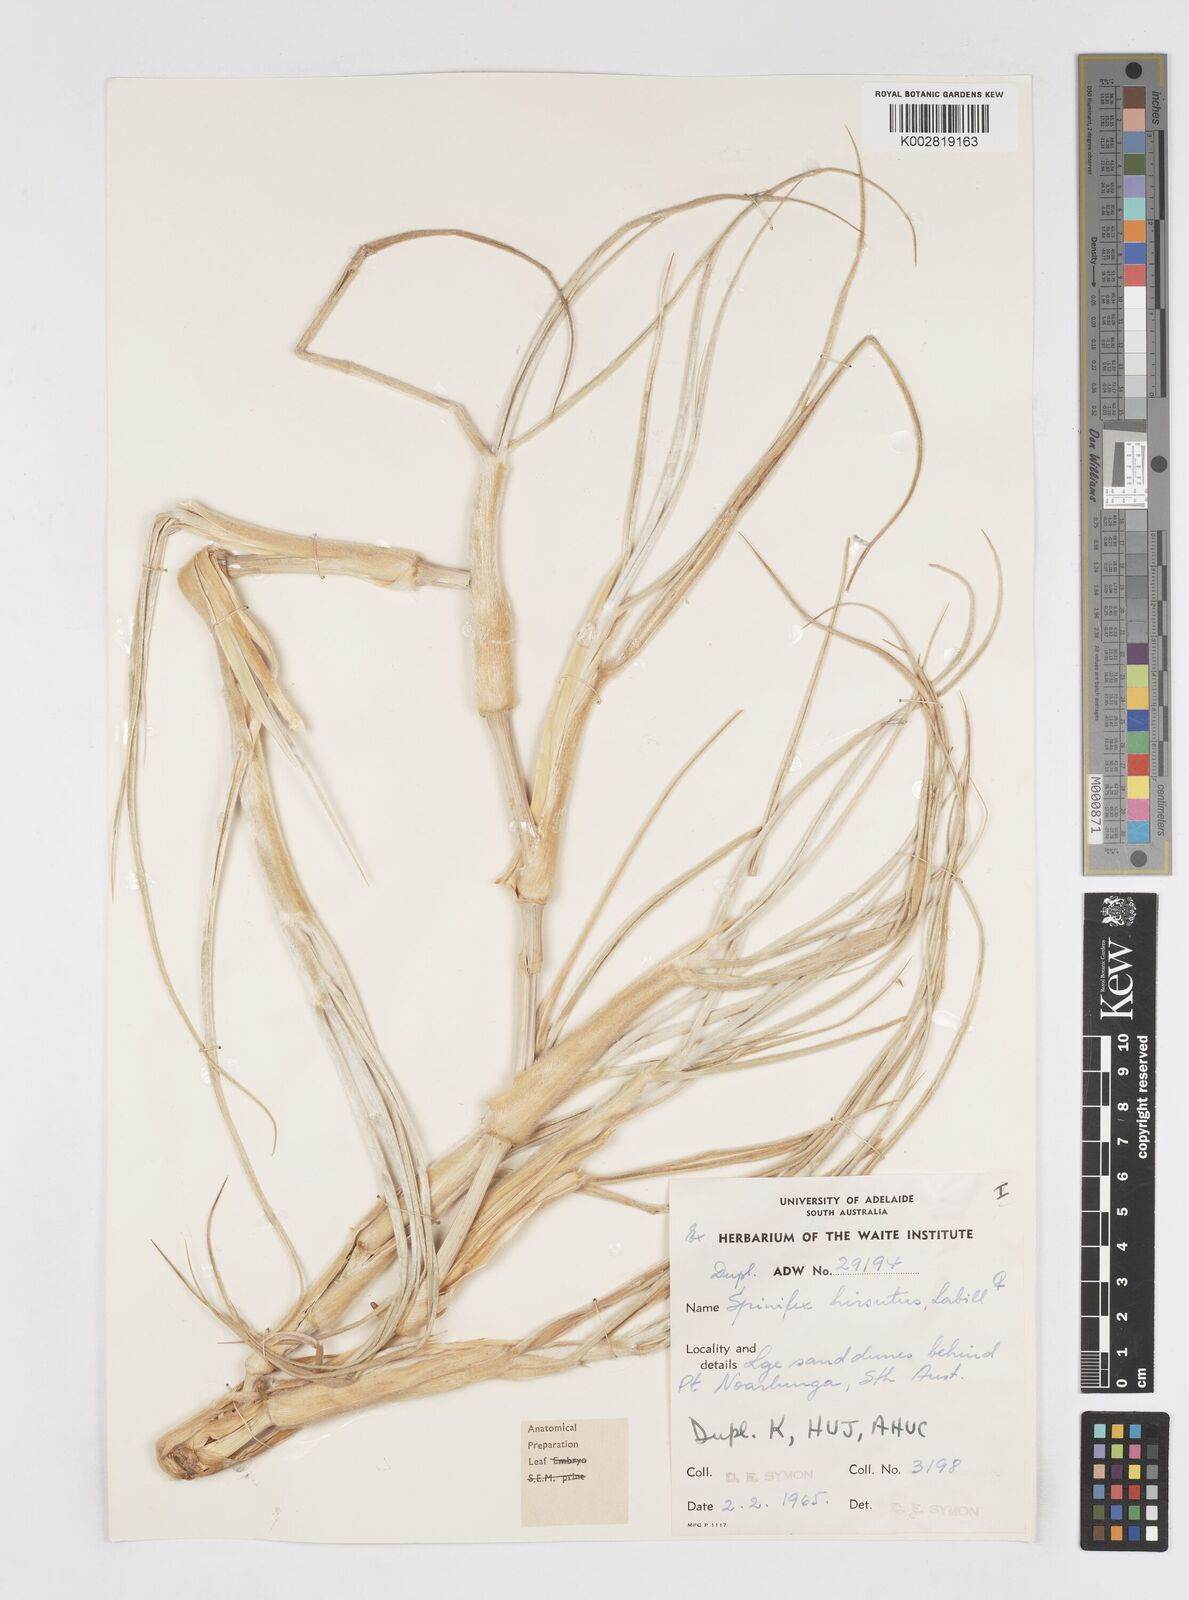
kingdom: Plantae
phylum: Tracheophyta
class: Liliopsida
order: Poales
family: Poaceae
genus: Spinifex
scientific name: Spinifex hirsutus
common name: Hairy spinifex
